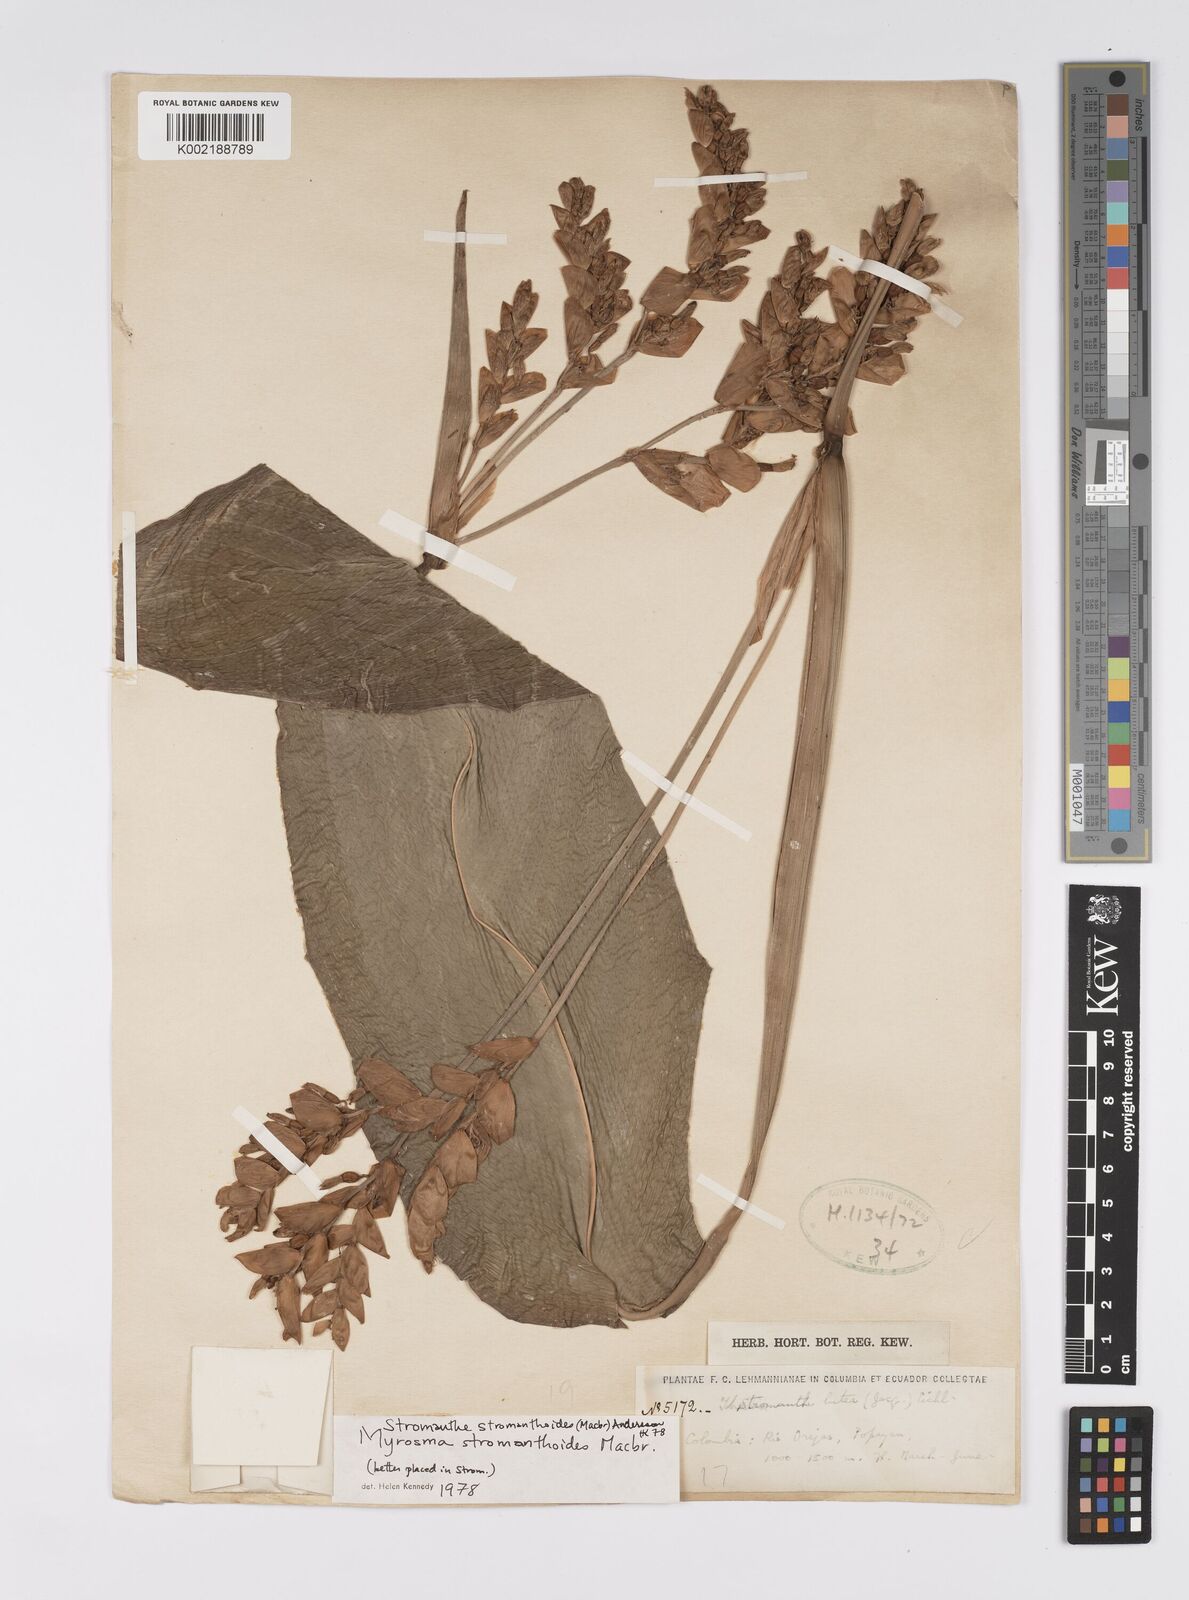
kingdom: Plantae
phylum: Tracheophyta
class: Liliopsida
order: Zingiberales
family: Marantaceae
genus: Stromanthe
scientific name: Stromanthe stromanthoides
